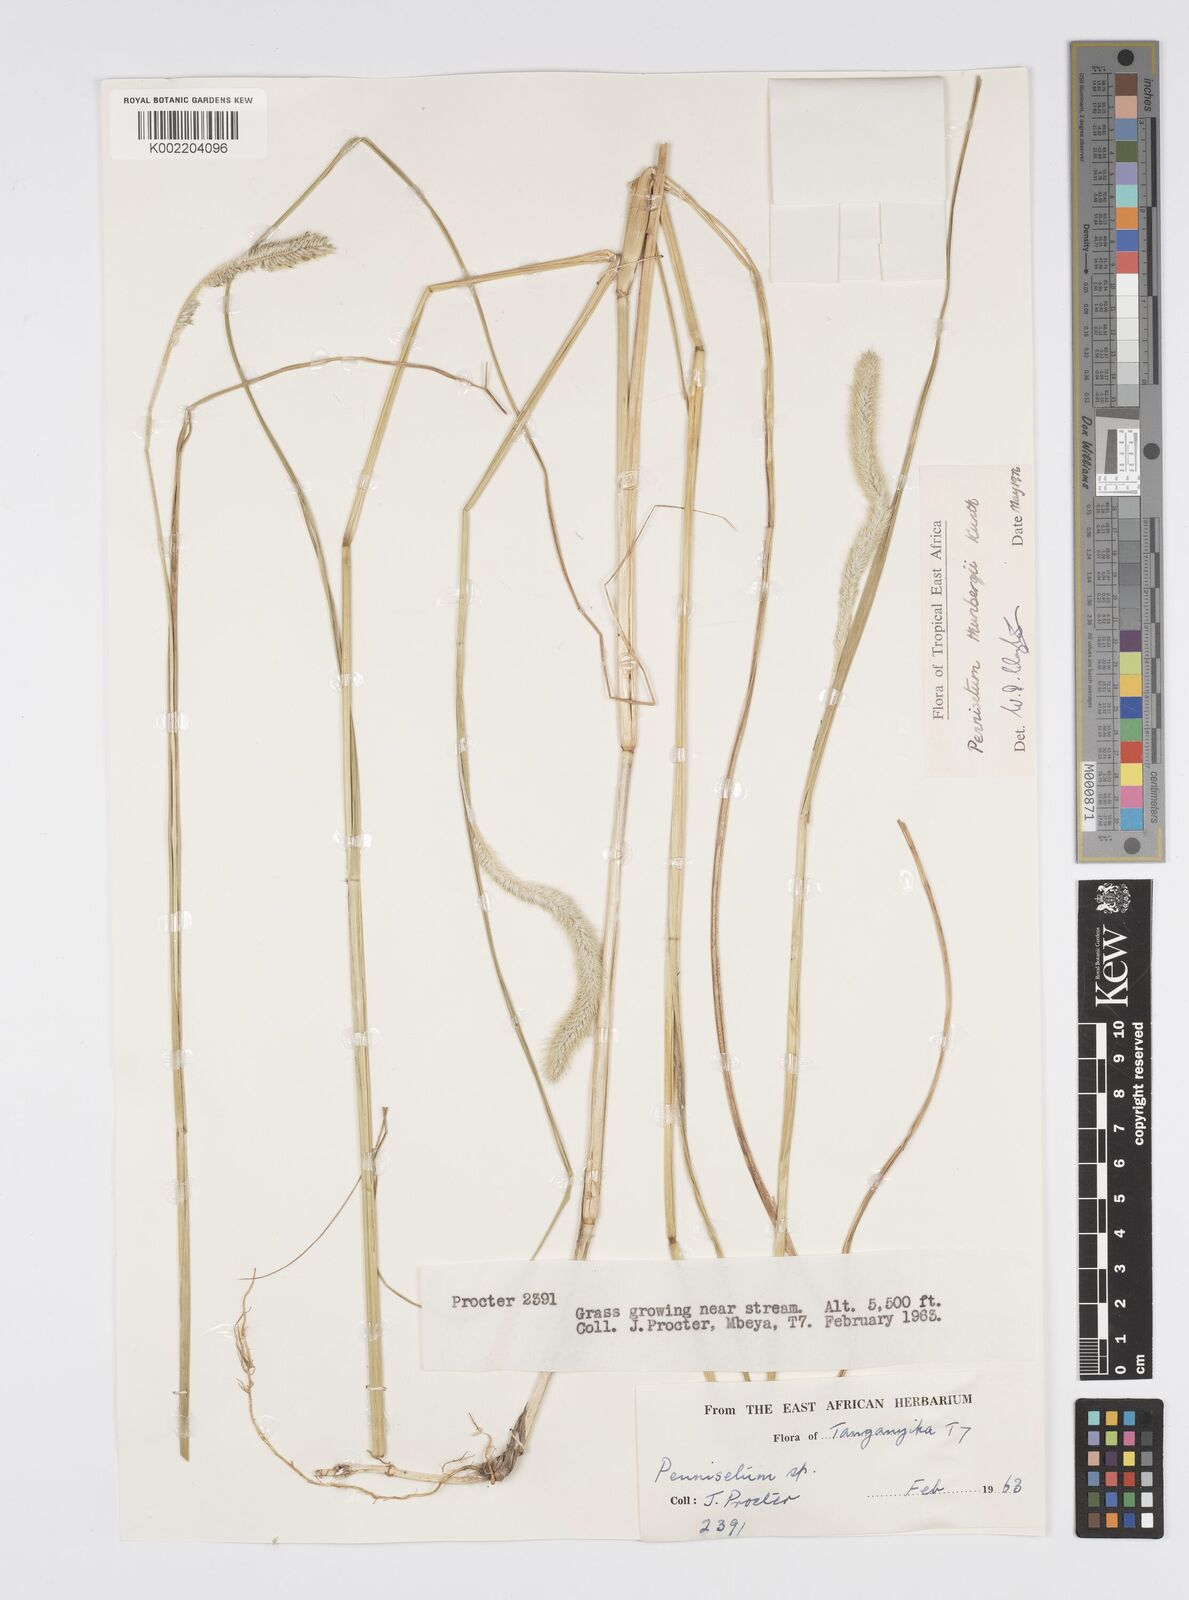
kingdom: Plantae
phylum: Tracheophyta
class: Liliopsida
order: Poales
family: Poaceae
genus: Cenchrus
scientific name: Cenchrus geniculatus
